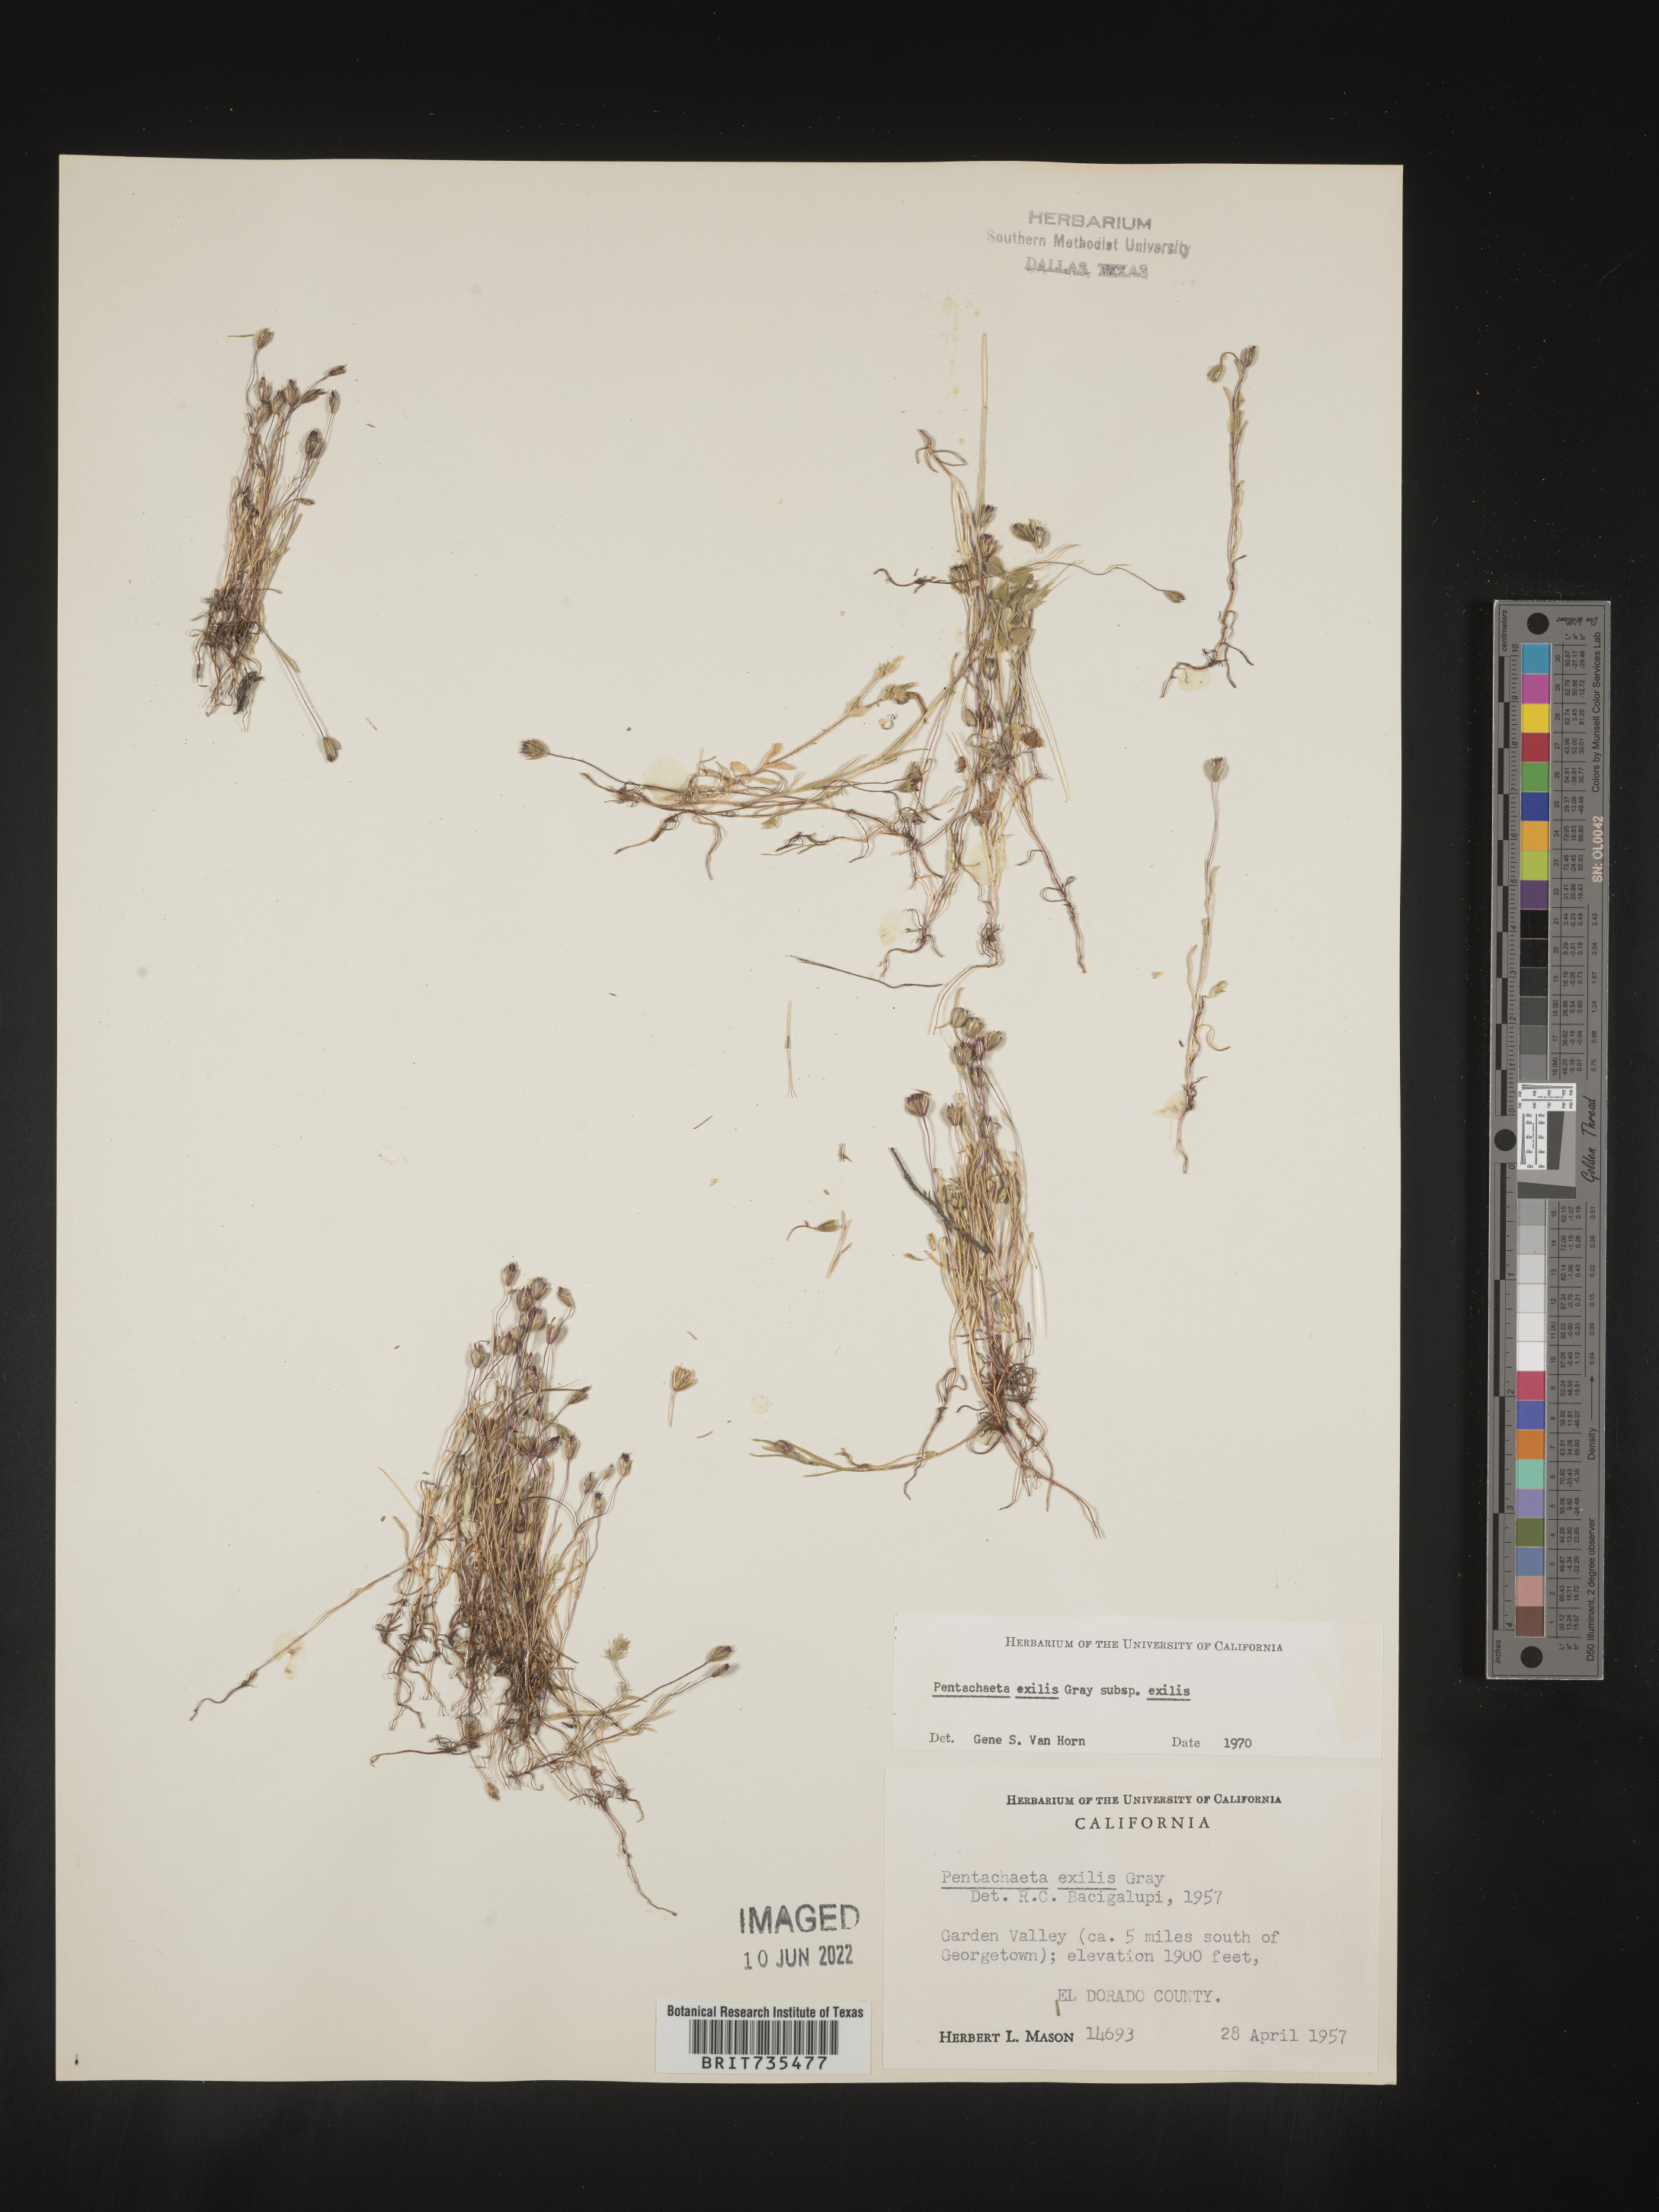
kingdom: Plantae
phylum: Tracheophyta
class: Magnoliopsida
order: Asterales
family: Asteraceae
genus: Pentachaeta
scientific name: Pentachaeta exilis
